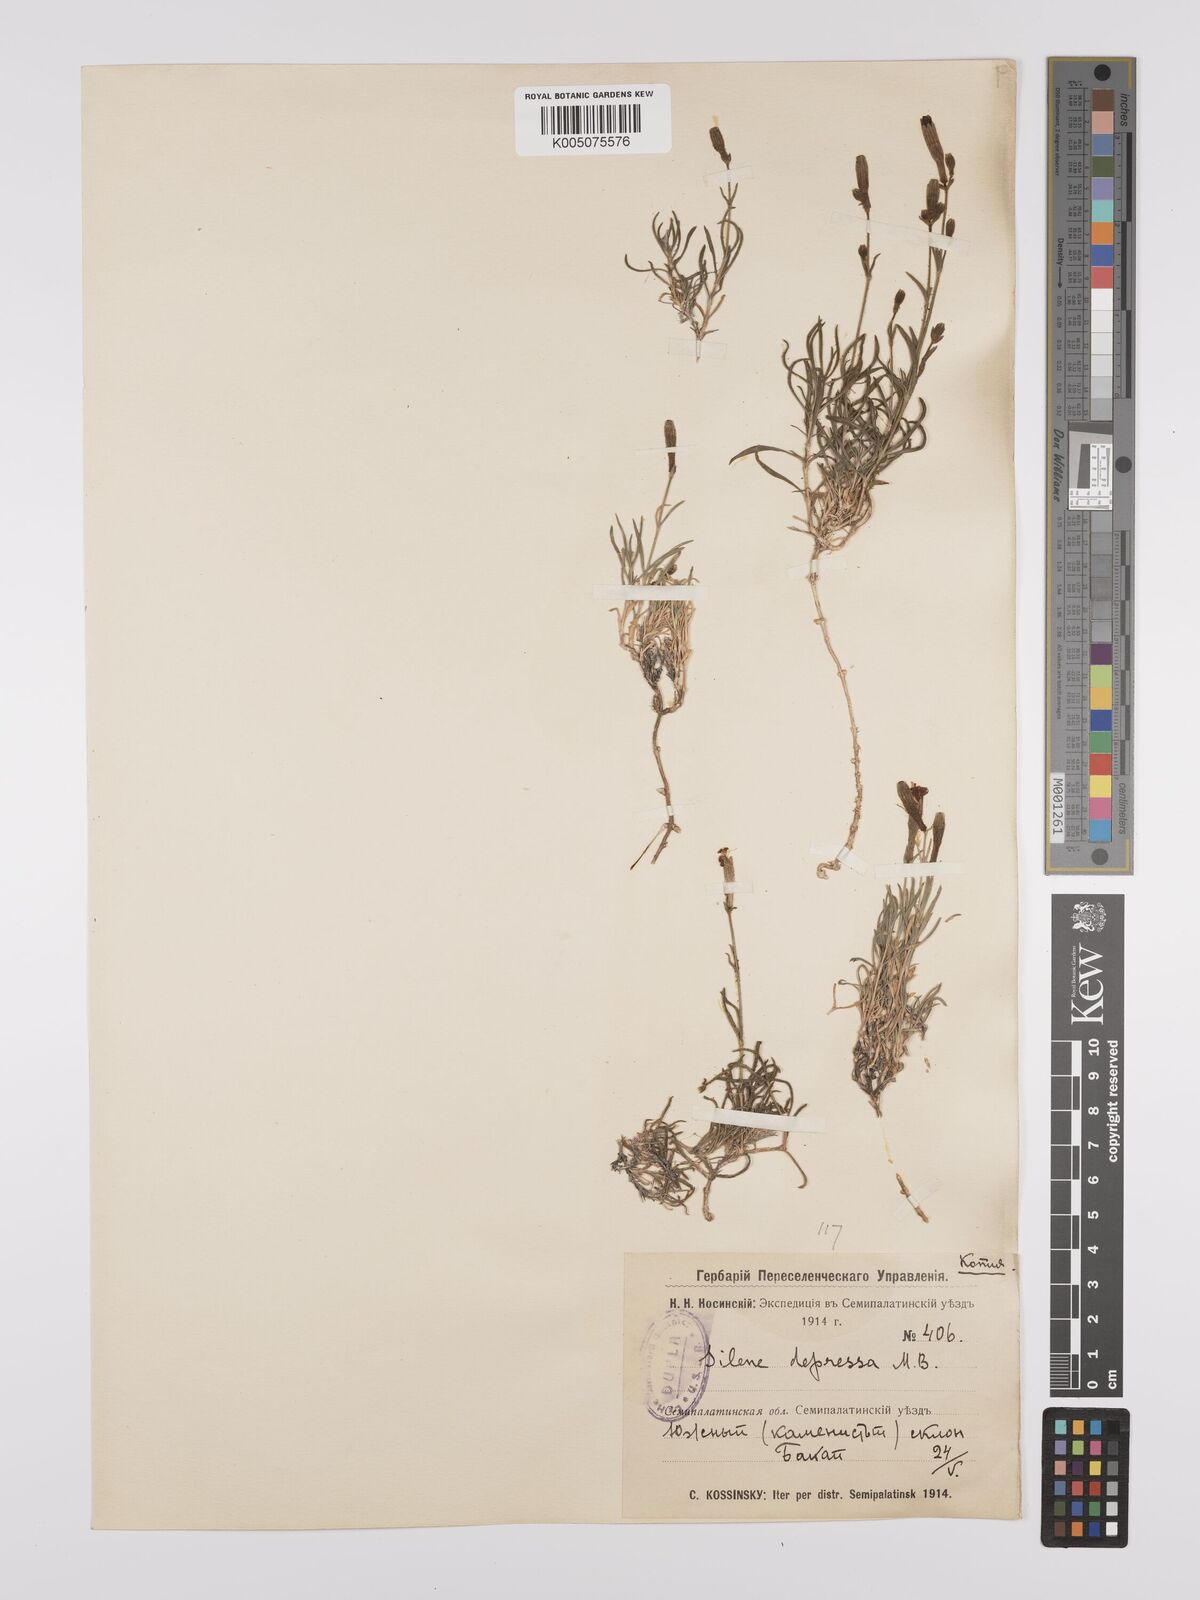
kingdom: Plantae
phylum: Tracheophyta
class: Magnoliopsida
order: Caryophyllales
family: Caryophyllaceae
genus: Silene
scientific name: Silene
